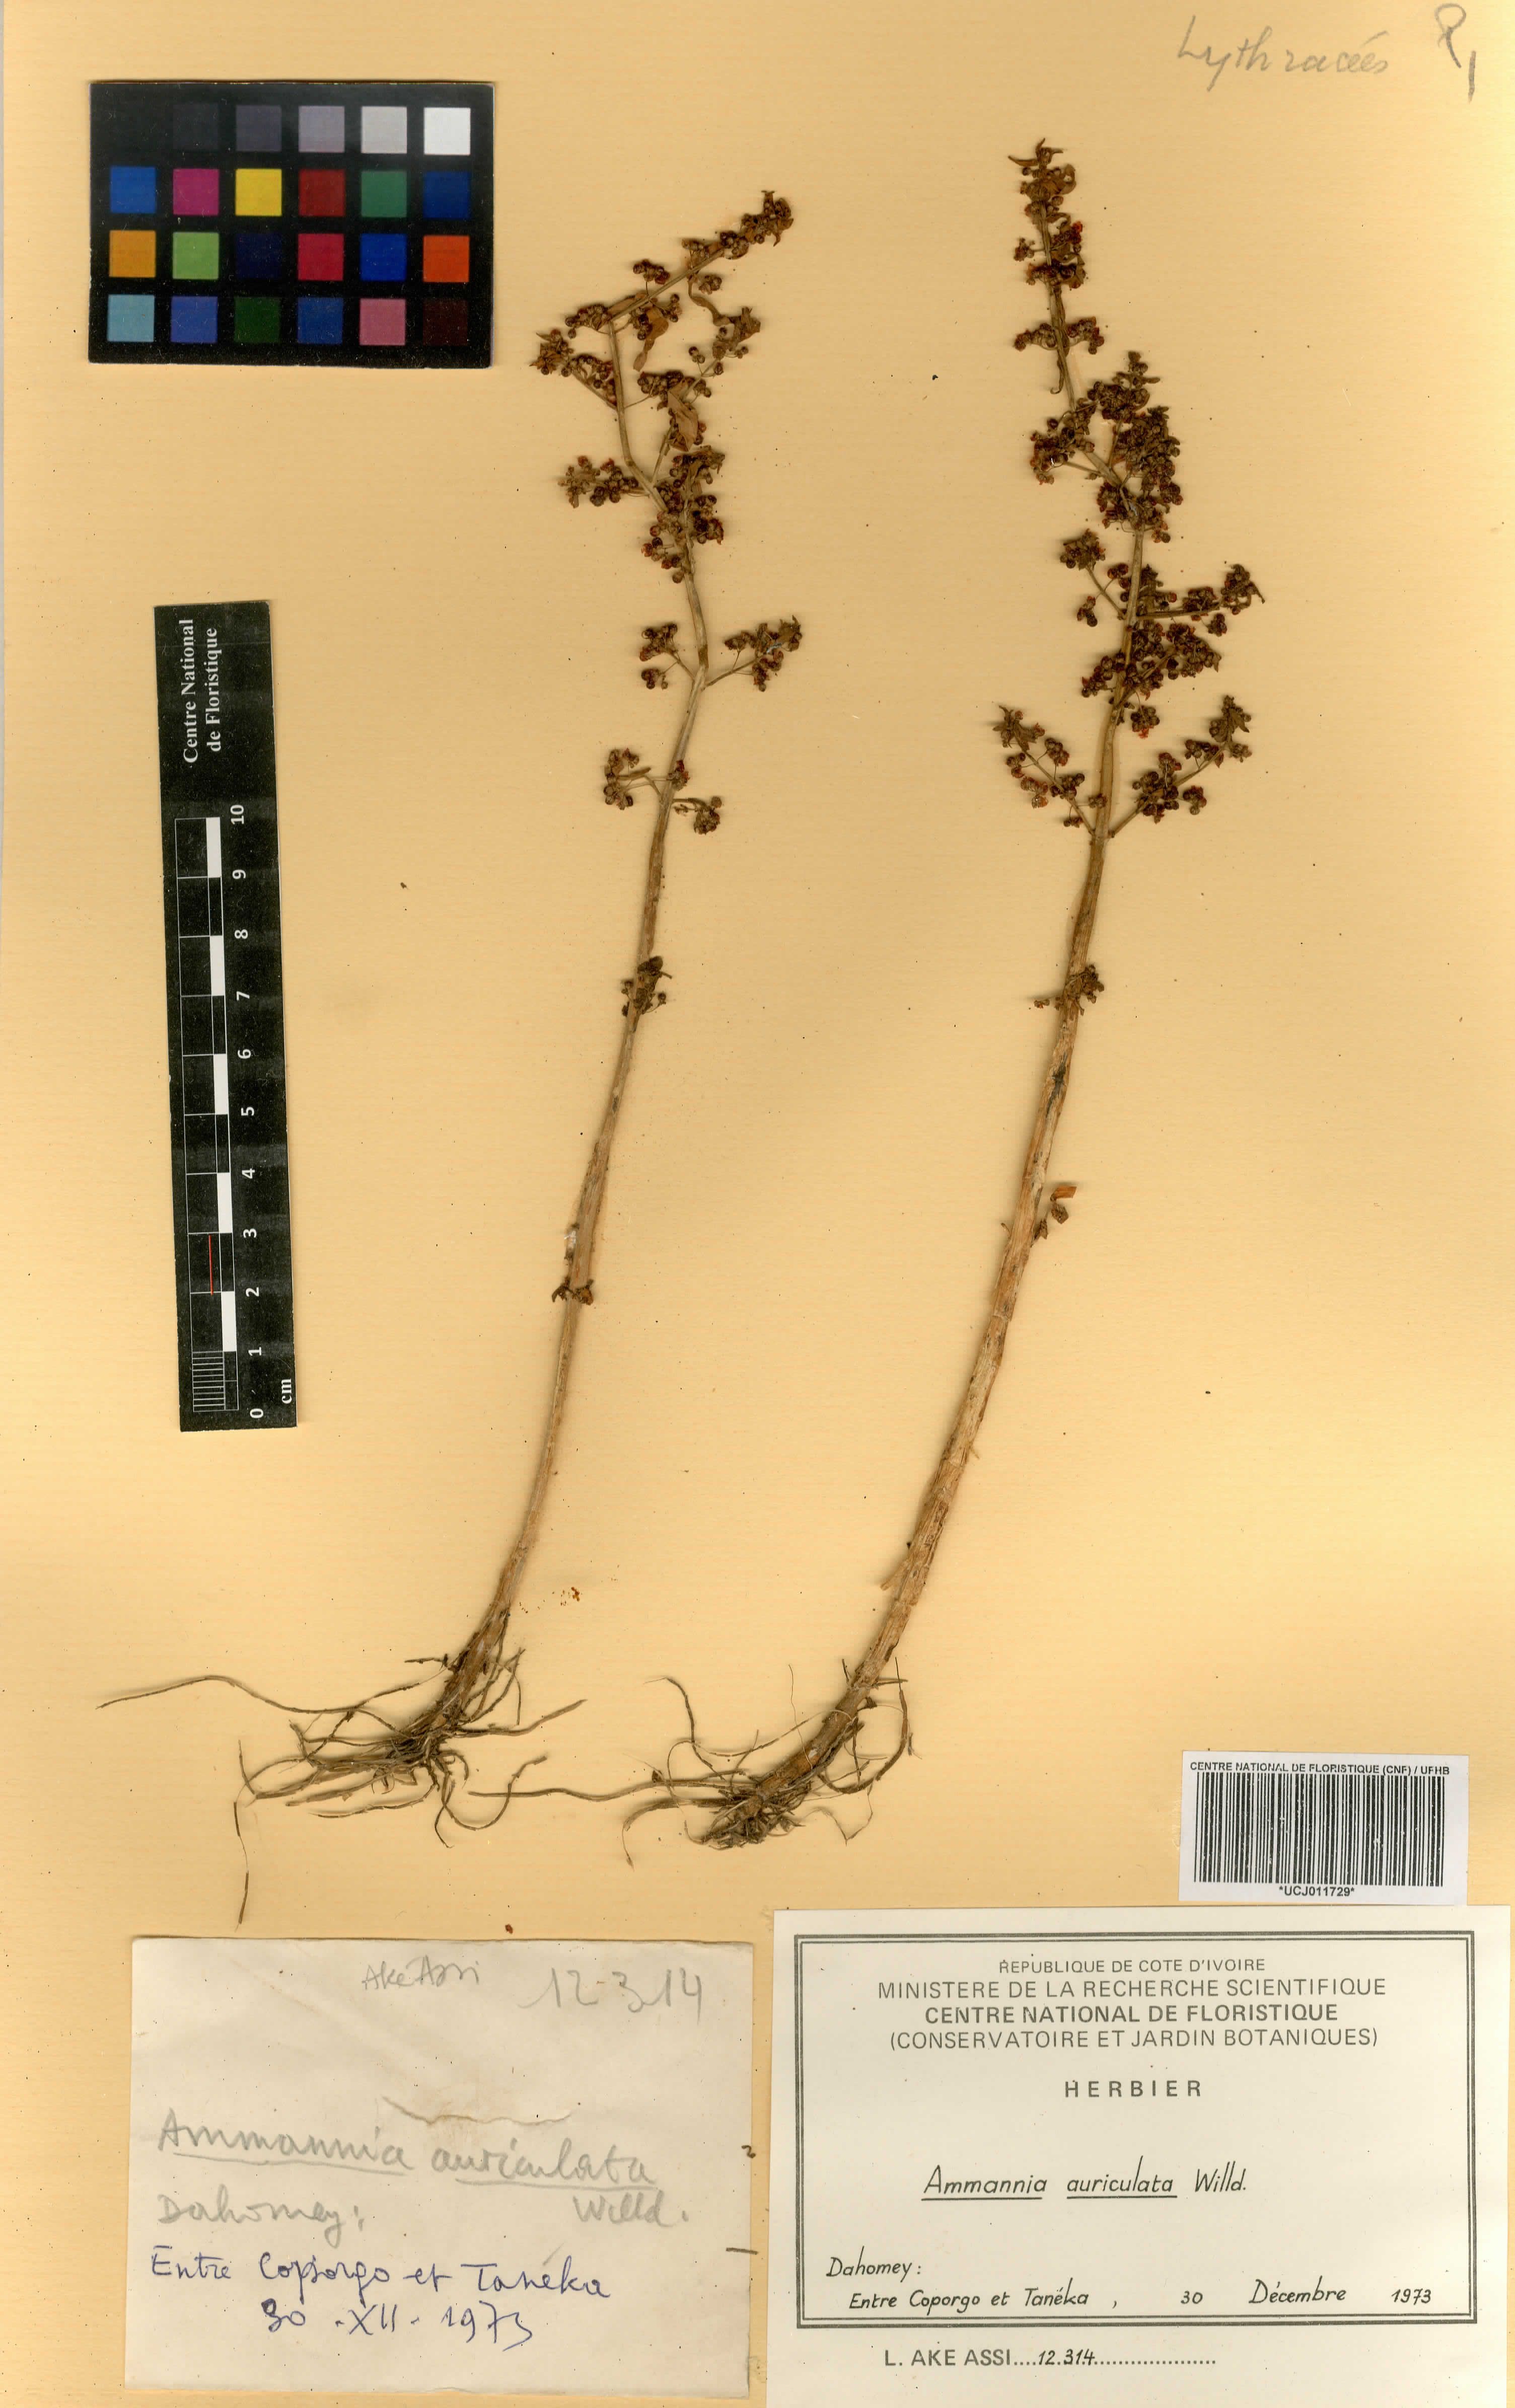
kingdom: Plantae
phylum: Tracheophyta
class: Magnoliopsida
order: Myrtales
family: Lythraceae
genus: Ammannia
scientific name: Ammannia auriculata
